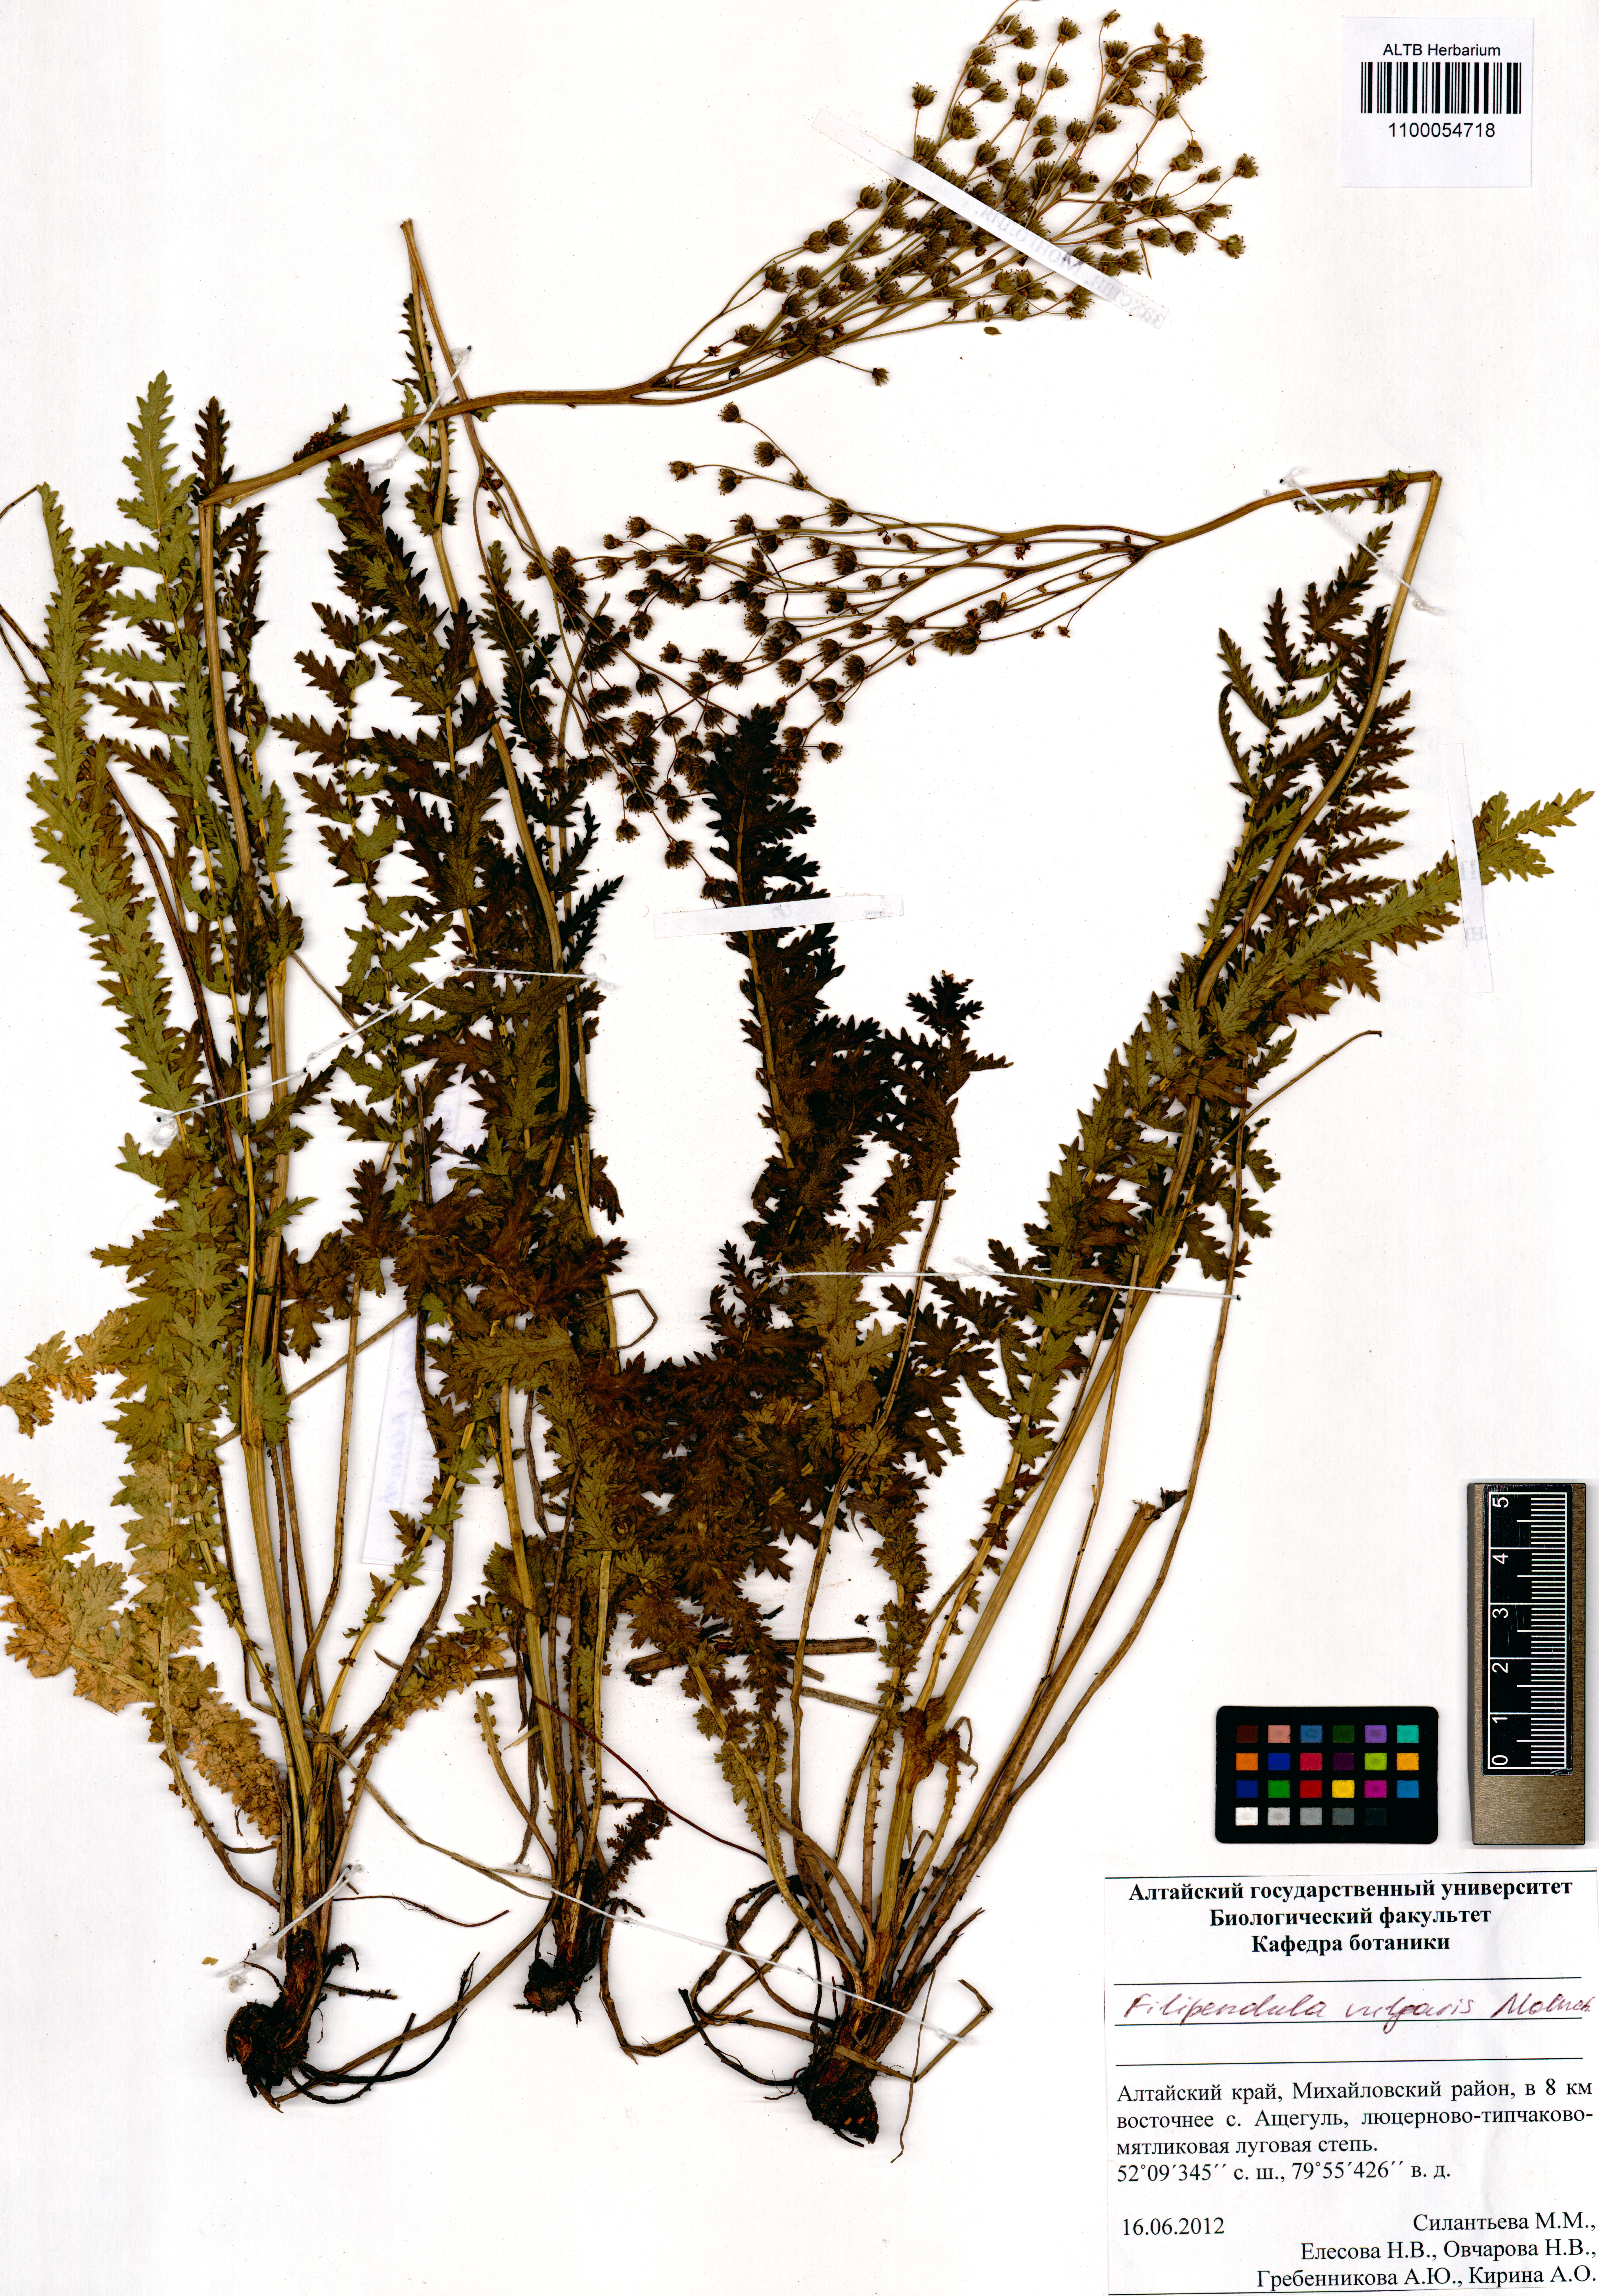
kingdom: Plantae
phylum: Tracheophyta
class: Magnoliopsida
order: Rosales
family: Rosaceae
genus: Filipendula
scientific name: Filipendula vulgaris
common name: Dropwort
